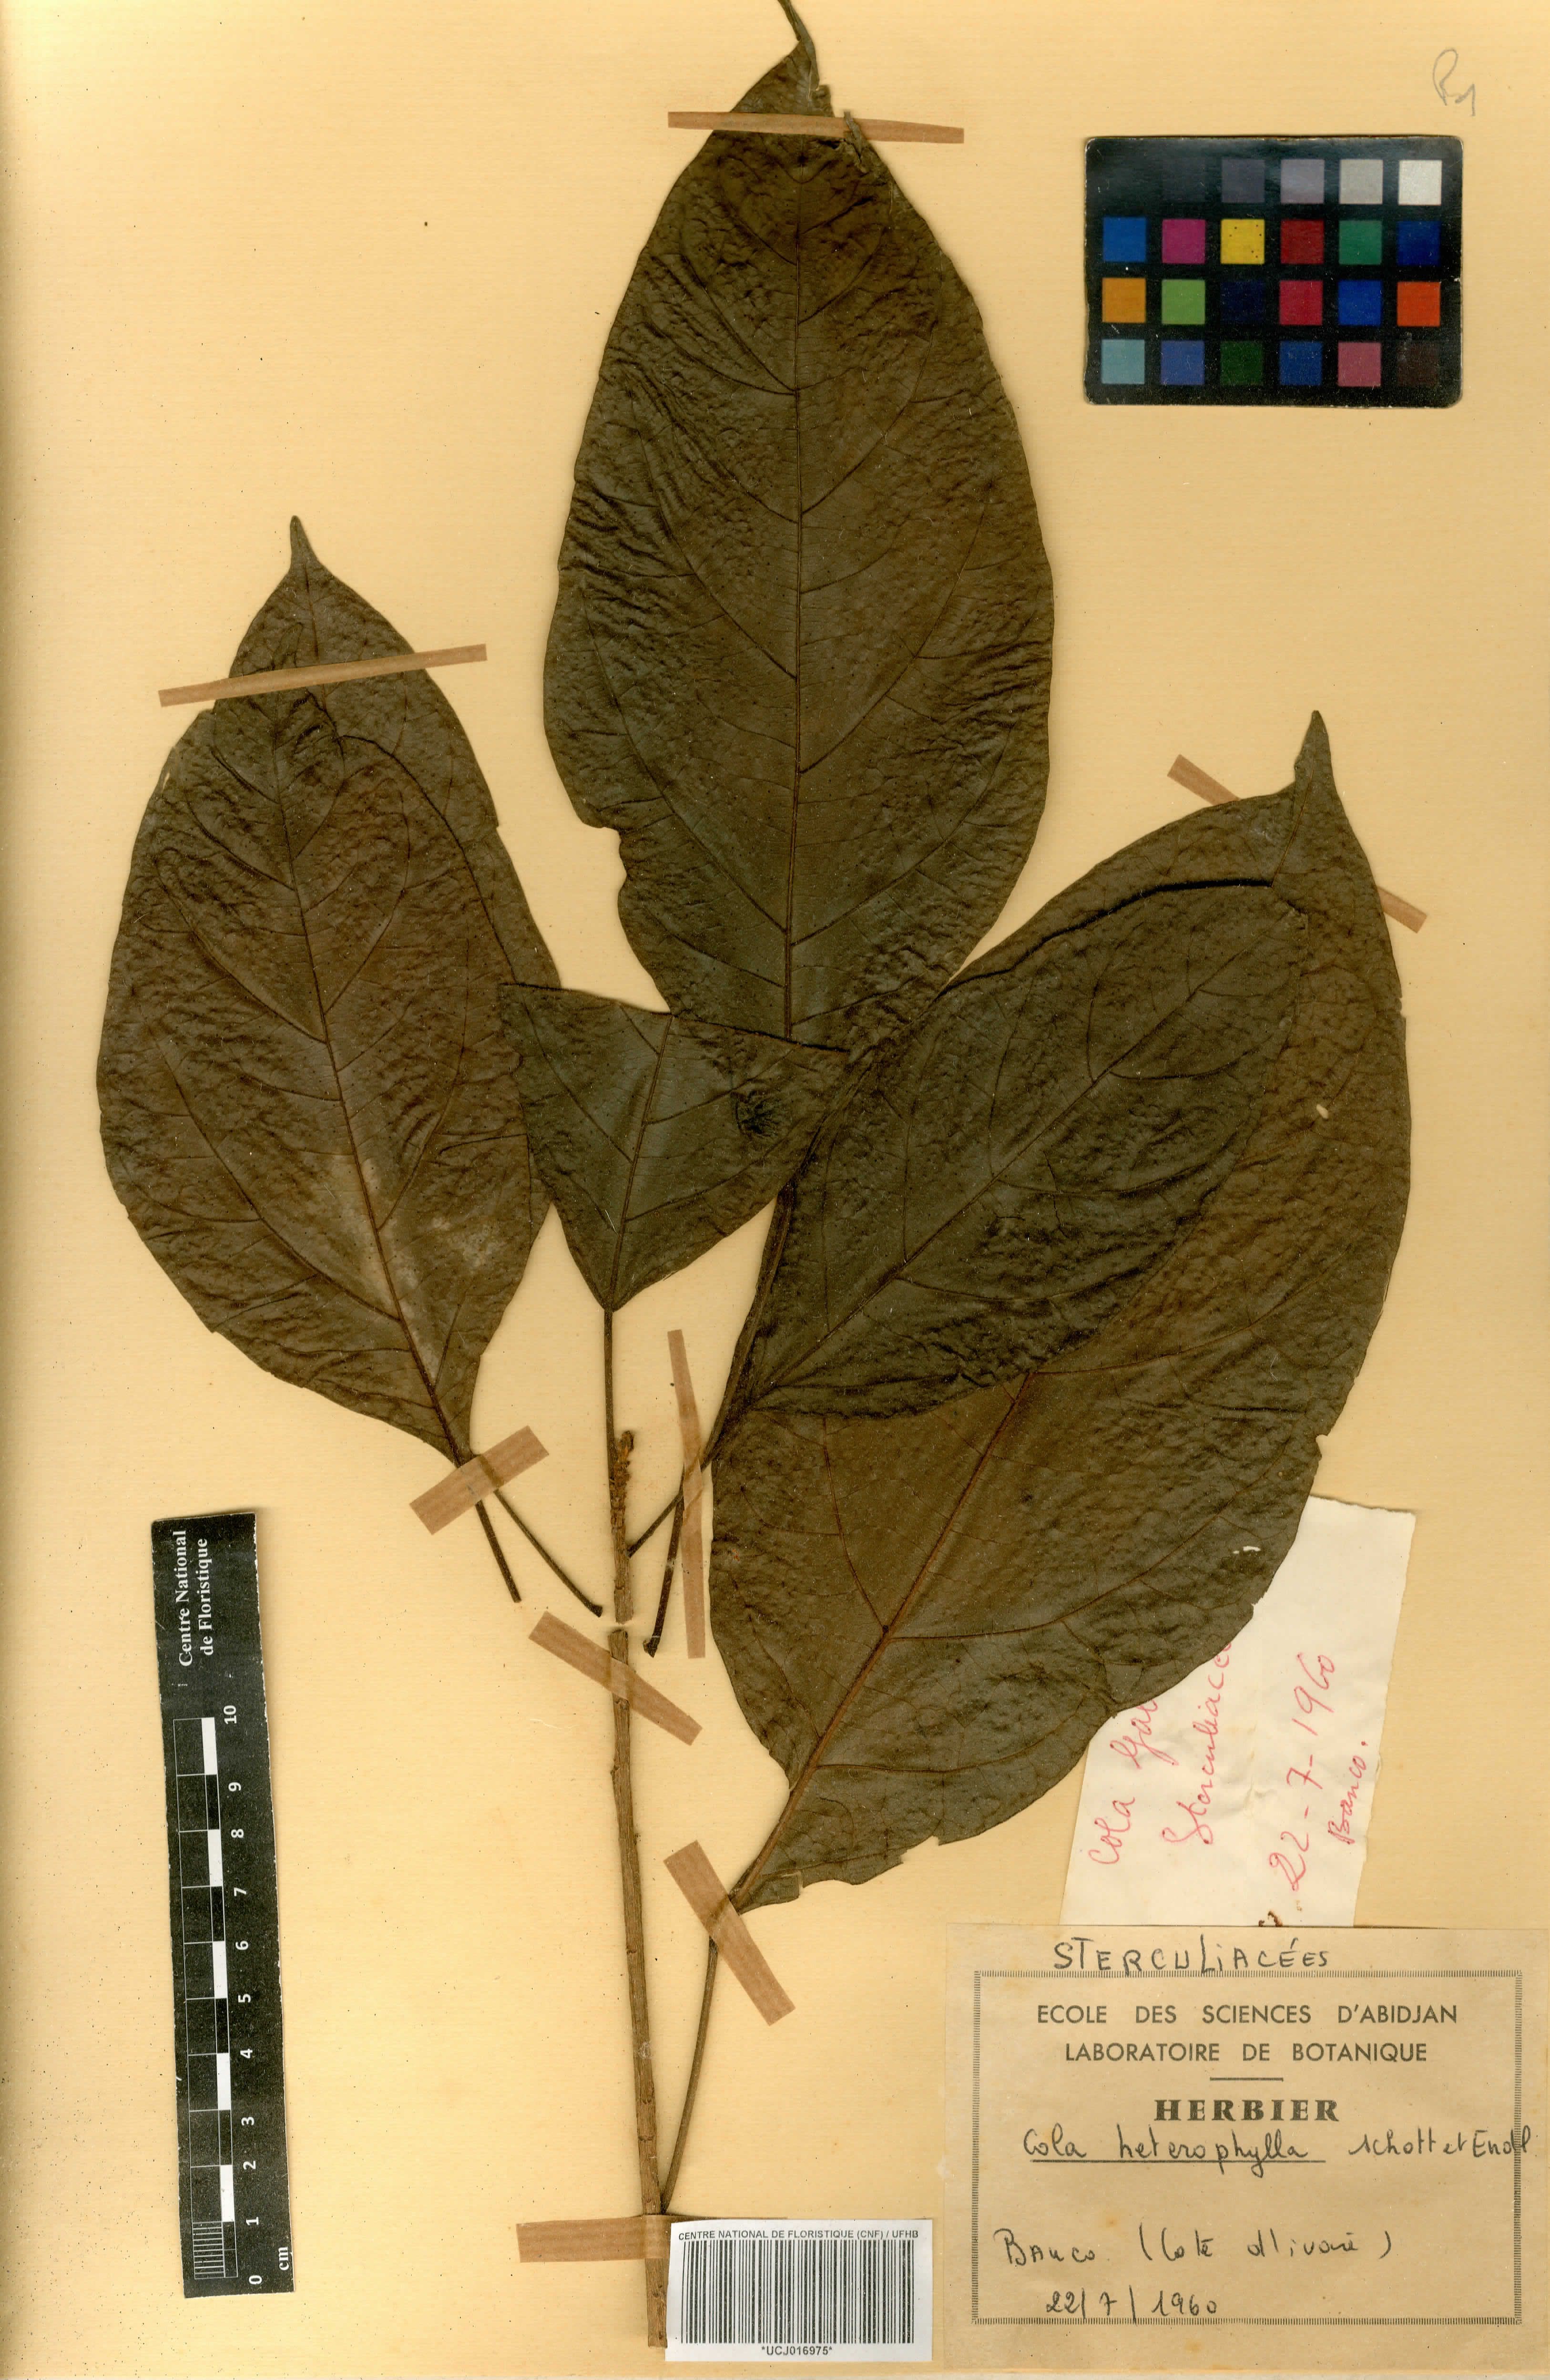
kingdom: Plantae
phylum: Tracheophyta
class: Magnoliopsida
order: Malvales
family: Malvaceae
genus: Cola
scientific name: Cola heterophylla
